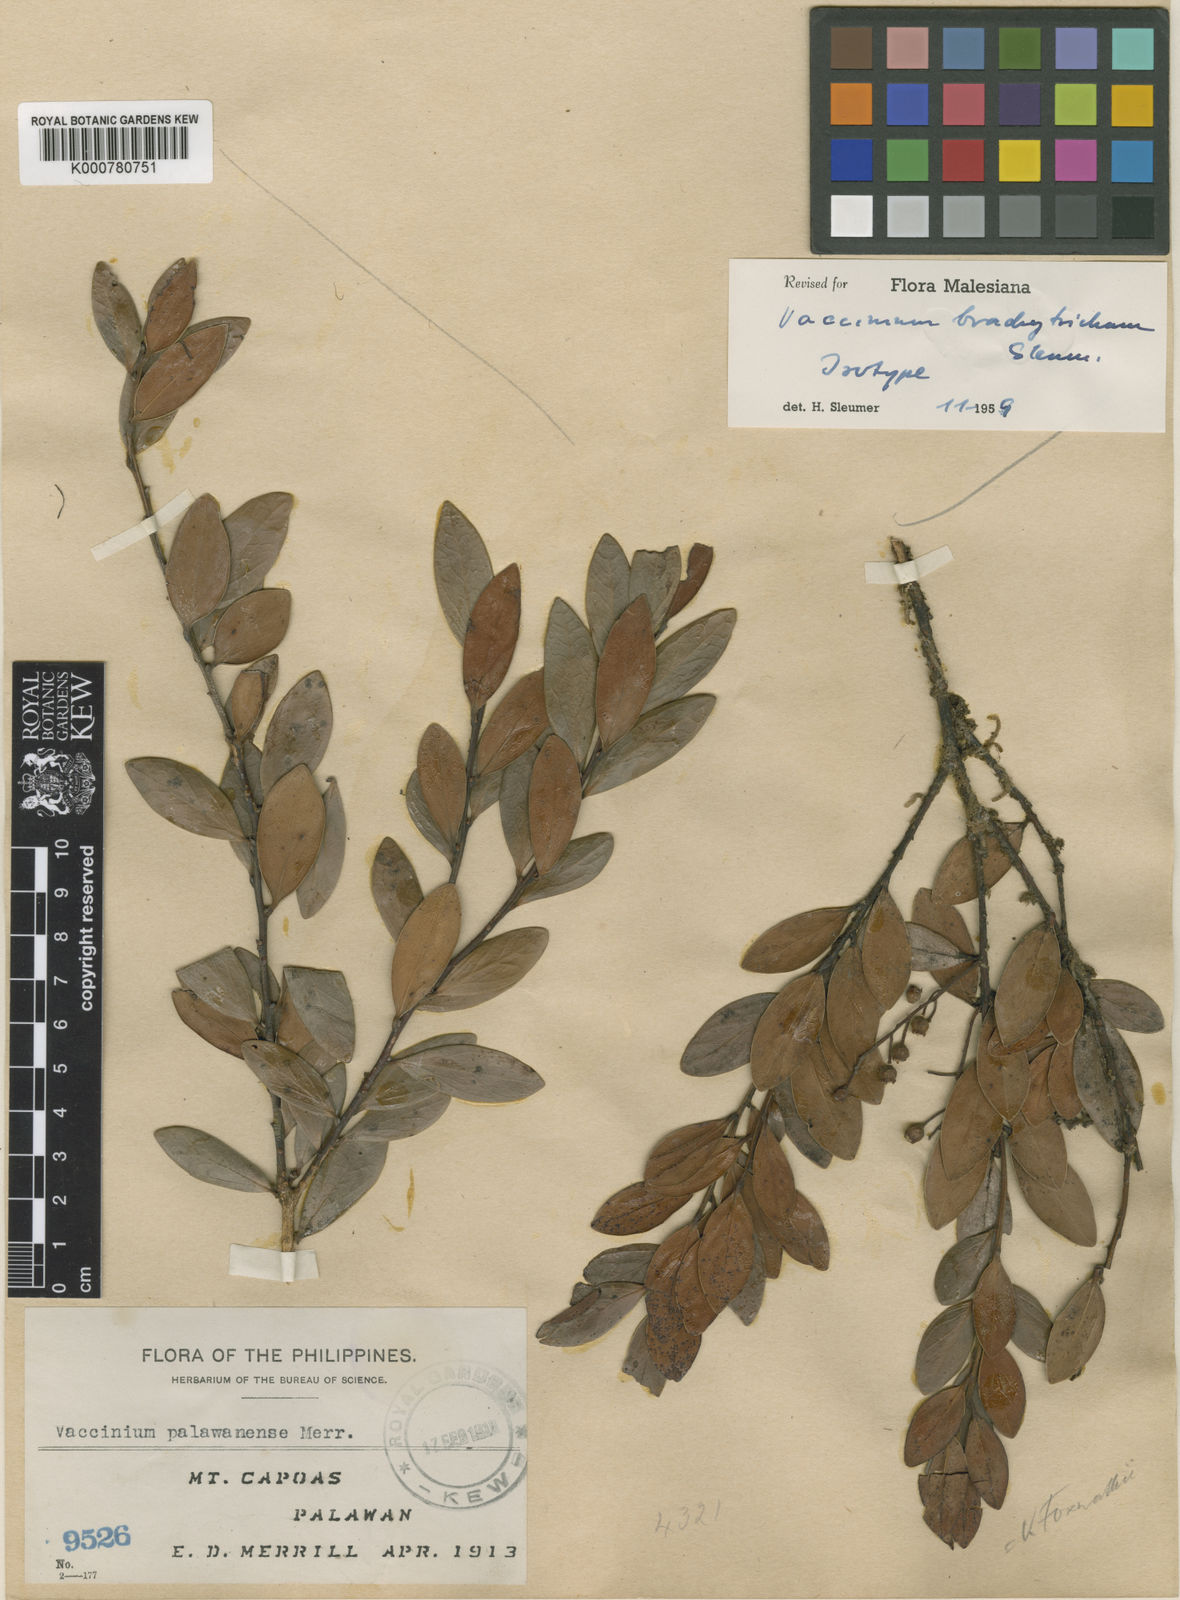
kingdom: Plantae
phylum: Tracheophyta
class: Magnoliopsida
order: Ericales
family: Ericaceae
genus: Vaccinium
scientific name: Vaccinium brachytrichum
